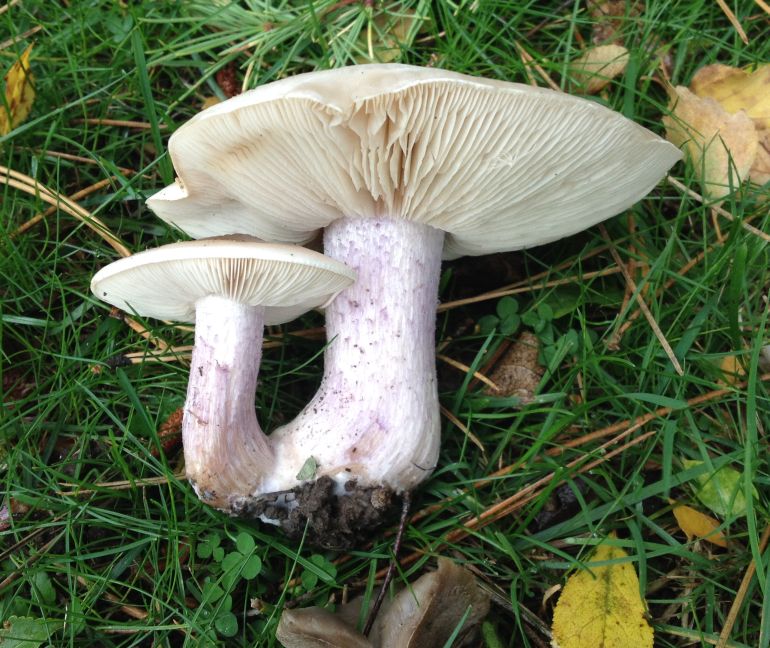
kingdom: Fungi
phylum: Basidiomycota
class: Agaricomycetes
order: Agaricales
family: Tricholomataceae
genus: Lepista
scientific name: Lepista personata
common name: bleg hekseringshat
